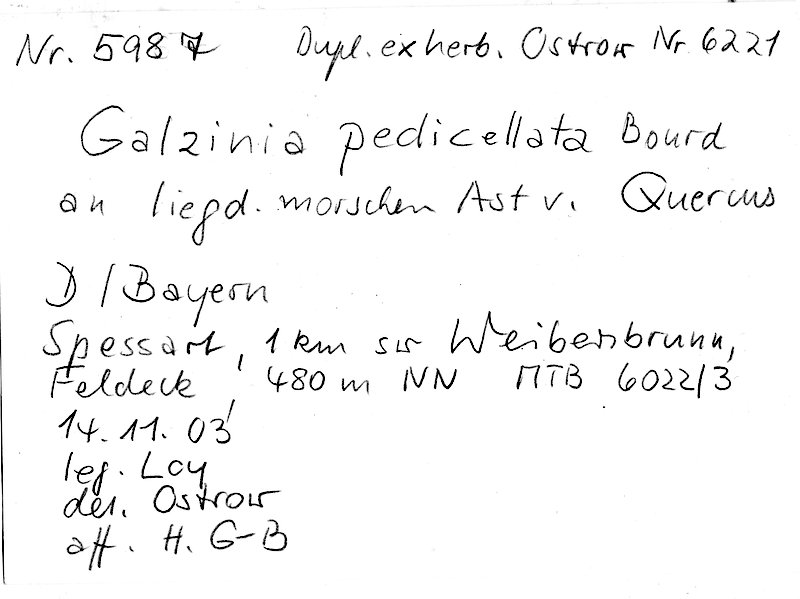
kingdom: Plantae
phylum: Tracheophyta
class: Magnoliopsida
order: Fagales
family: Fagaceae
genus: Quercus
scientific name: Quercus
